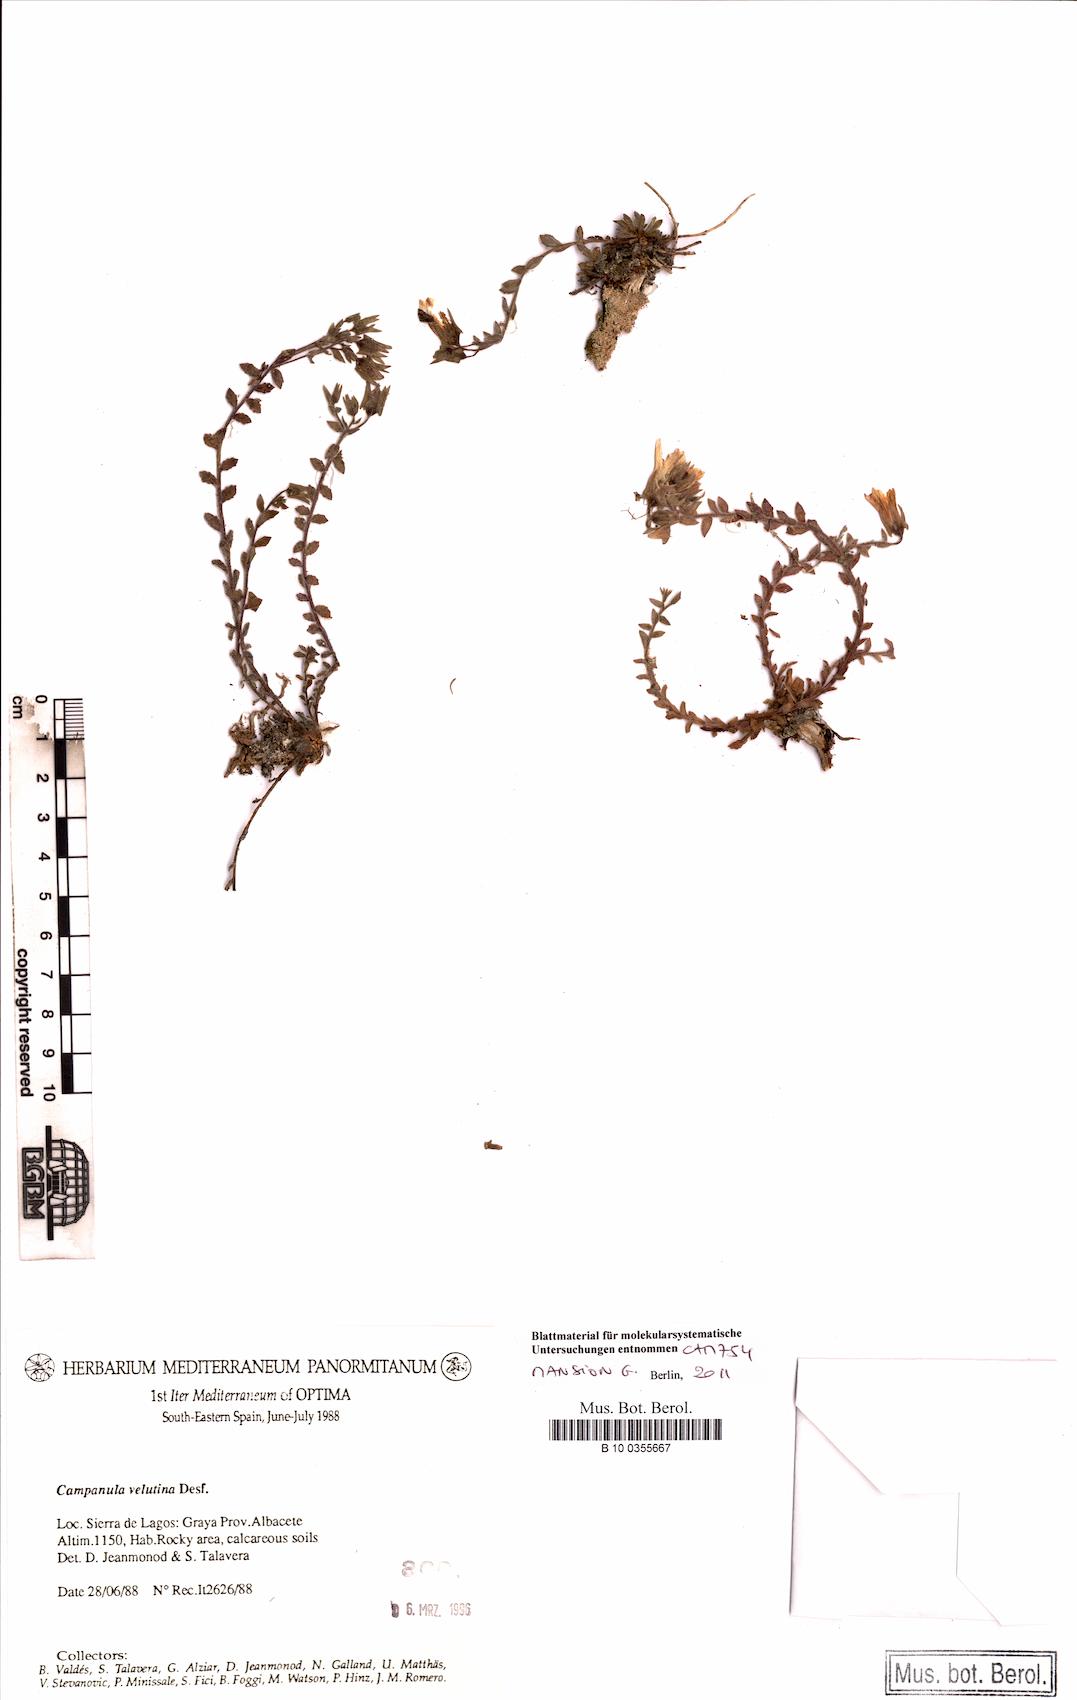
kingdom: Plantae
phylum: Tracheophyta
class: Magnoliopsida
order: Asterales
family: Campanulaceae
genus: Campanula
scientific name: Campanula mollis
